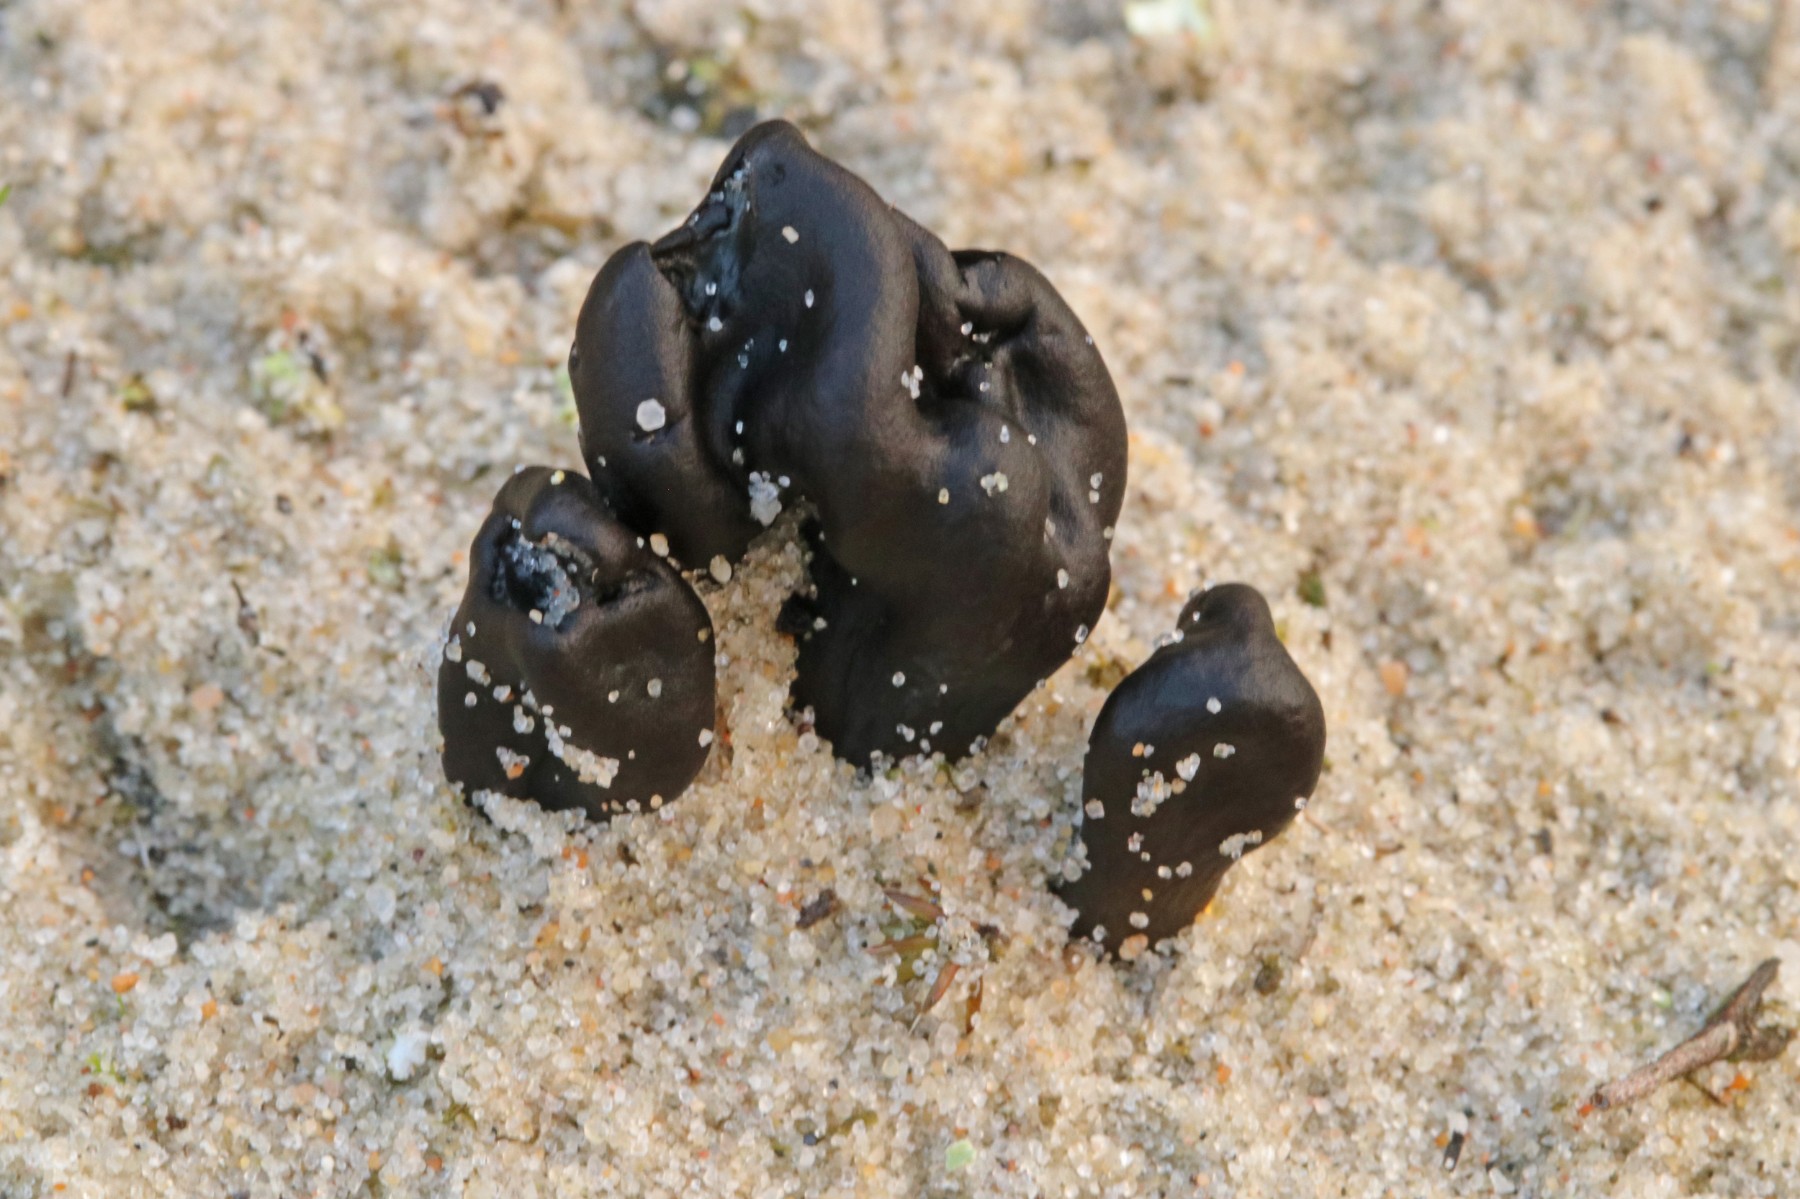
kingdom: Fungi
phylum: Ascomycota
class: Geoglossomycetes
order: Geoglossales
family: Geoglossaceae
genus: Sabuloglossum
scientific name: Sabuloglossum arenarium
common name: klit-jordtunge
